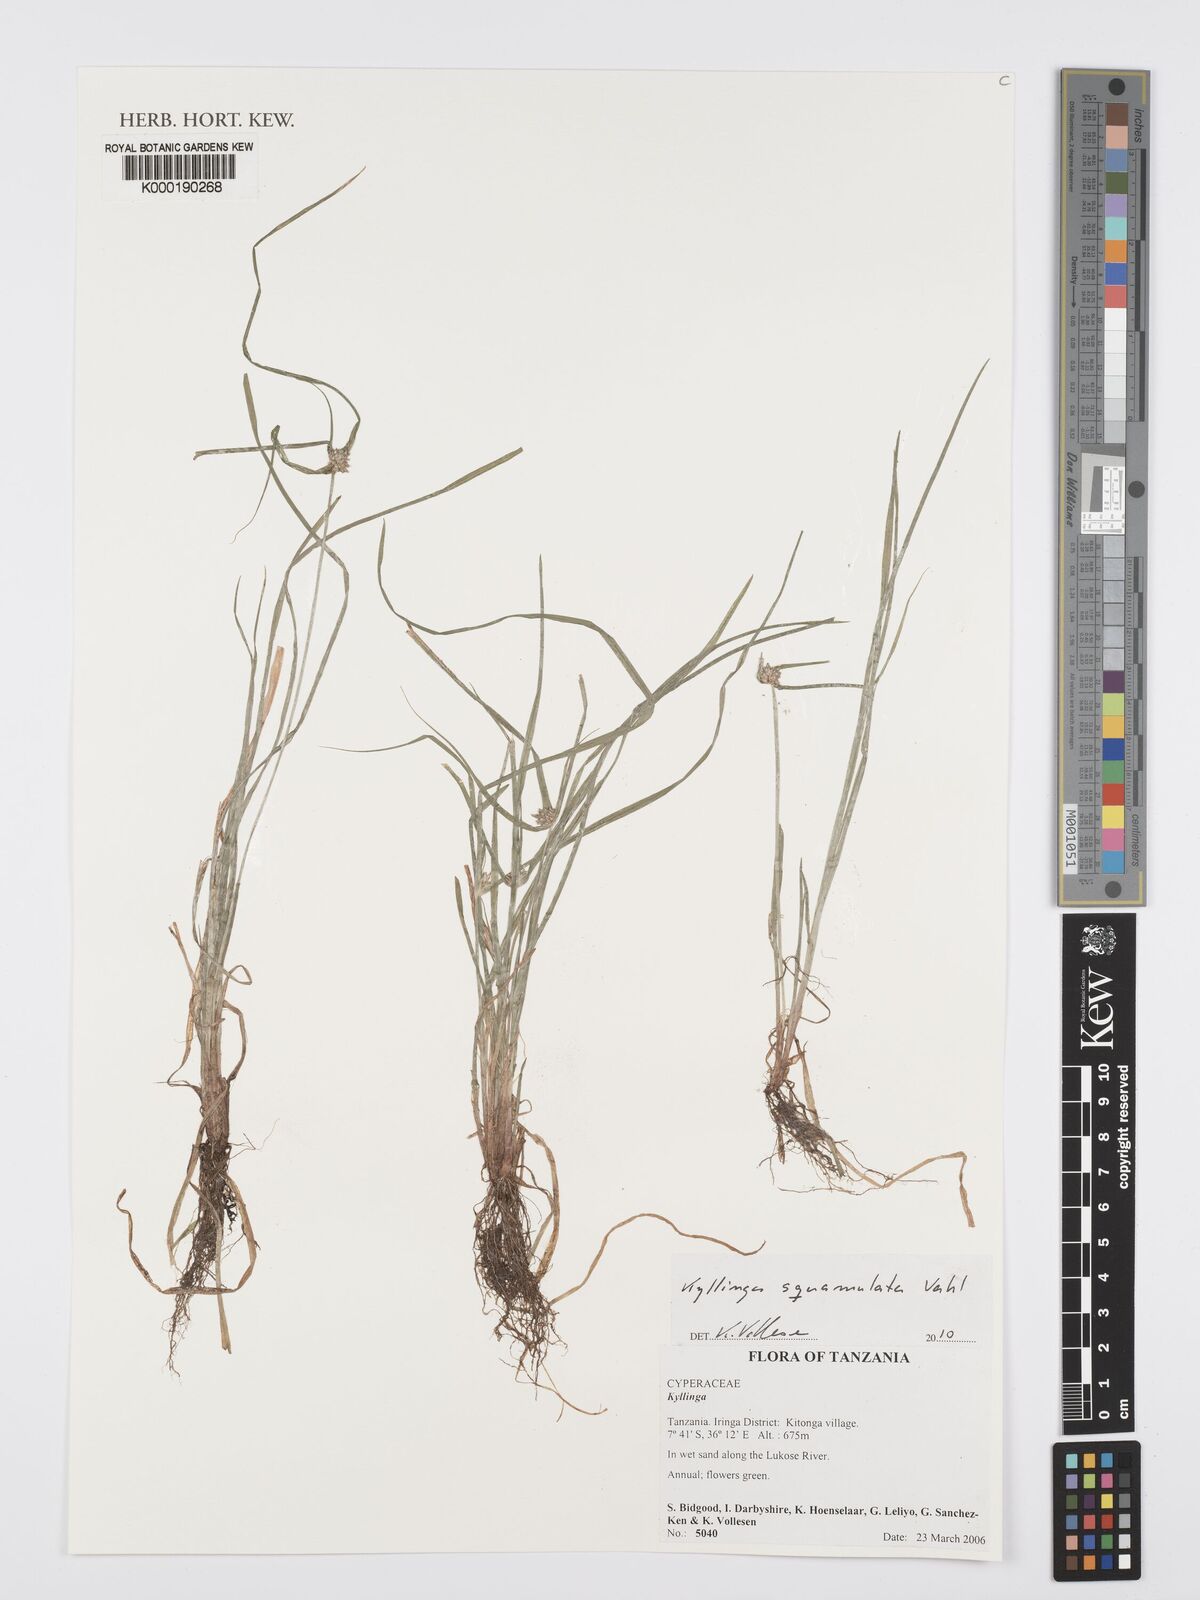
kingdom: Plantae
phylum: Tracheophyta
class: Liliopsida
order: Poales
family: Cyperaceae
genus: Cyperus
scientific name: Cyperus
